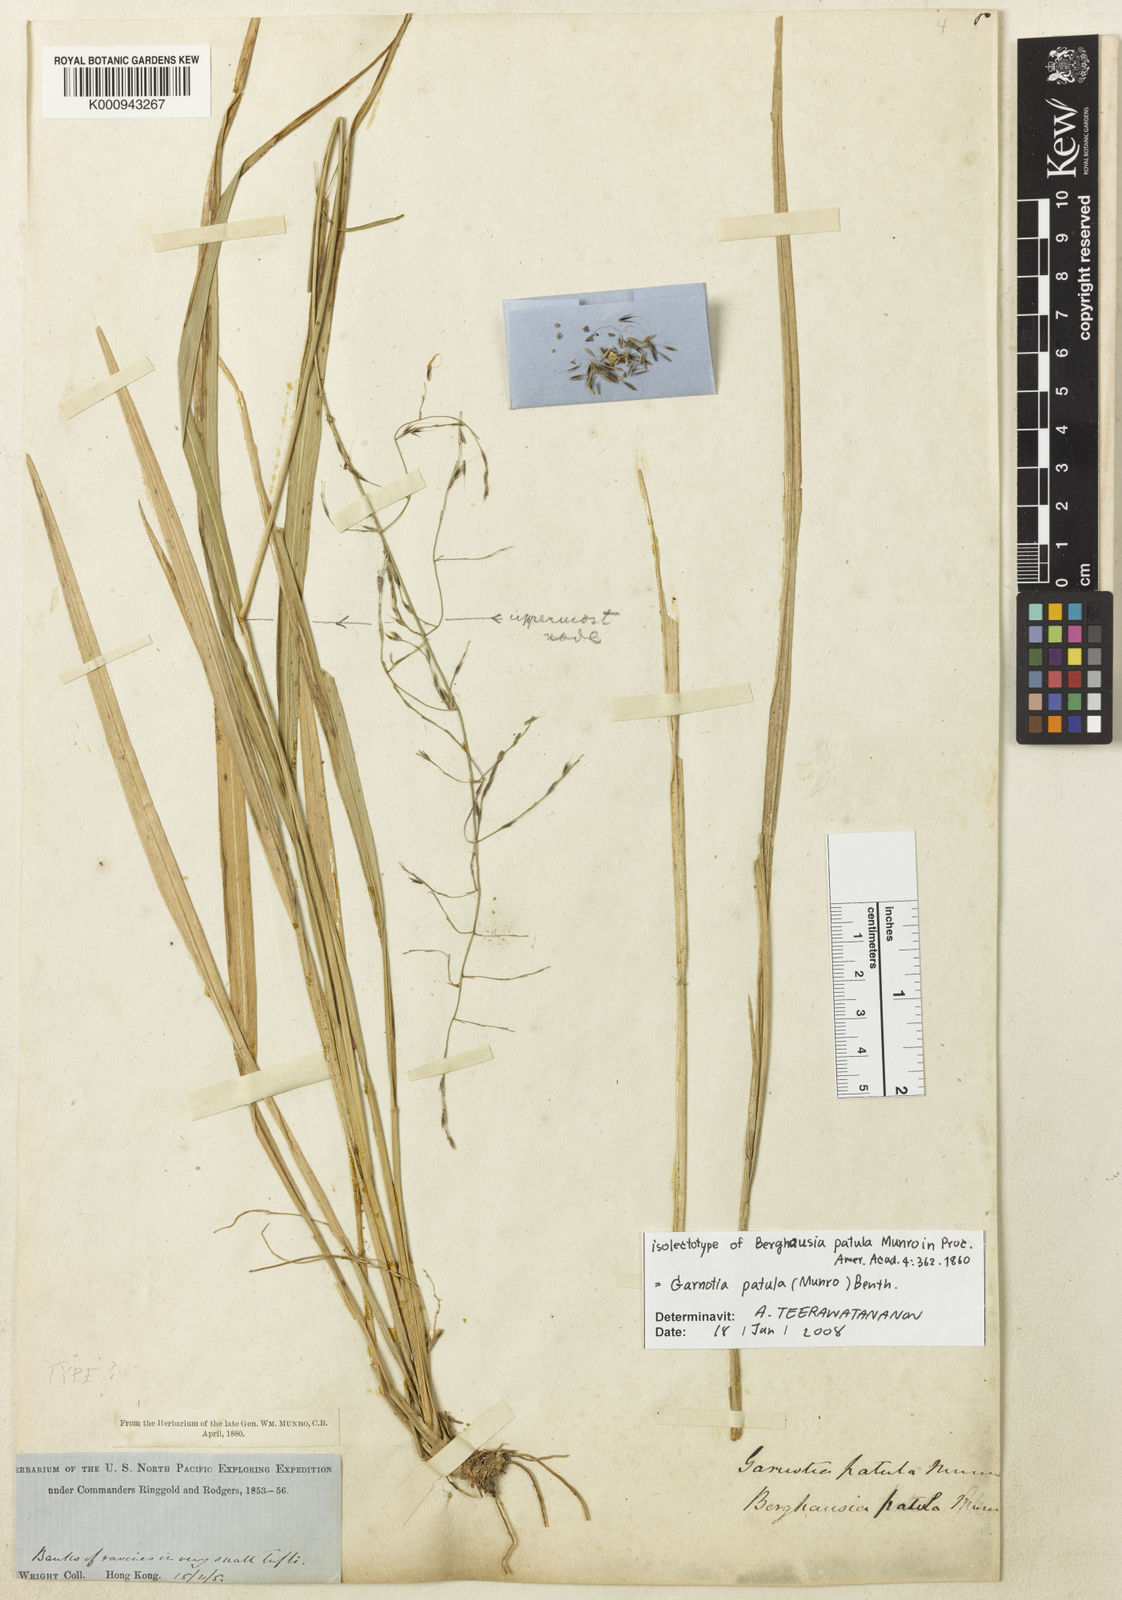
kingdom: Plantae
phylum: Tracheophyta
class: Liliopsida
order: Poales
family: Poaceae
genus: Garnotia
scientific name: Garnotia patula
